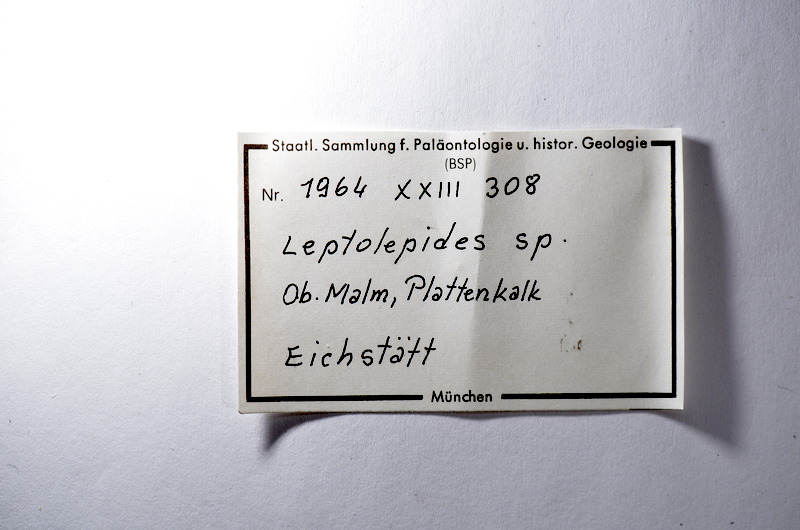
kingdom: Animalia
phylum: Chordata
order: Salmoniformes
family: Orthogonikleithridae
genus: Leptolepides
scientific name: Leptolepides
